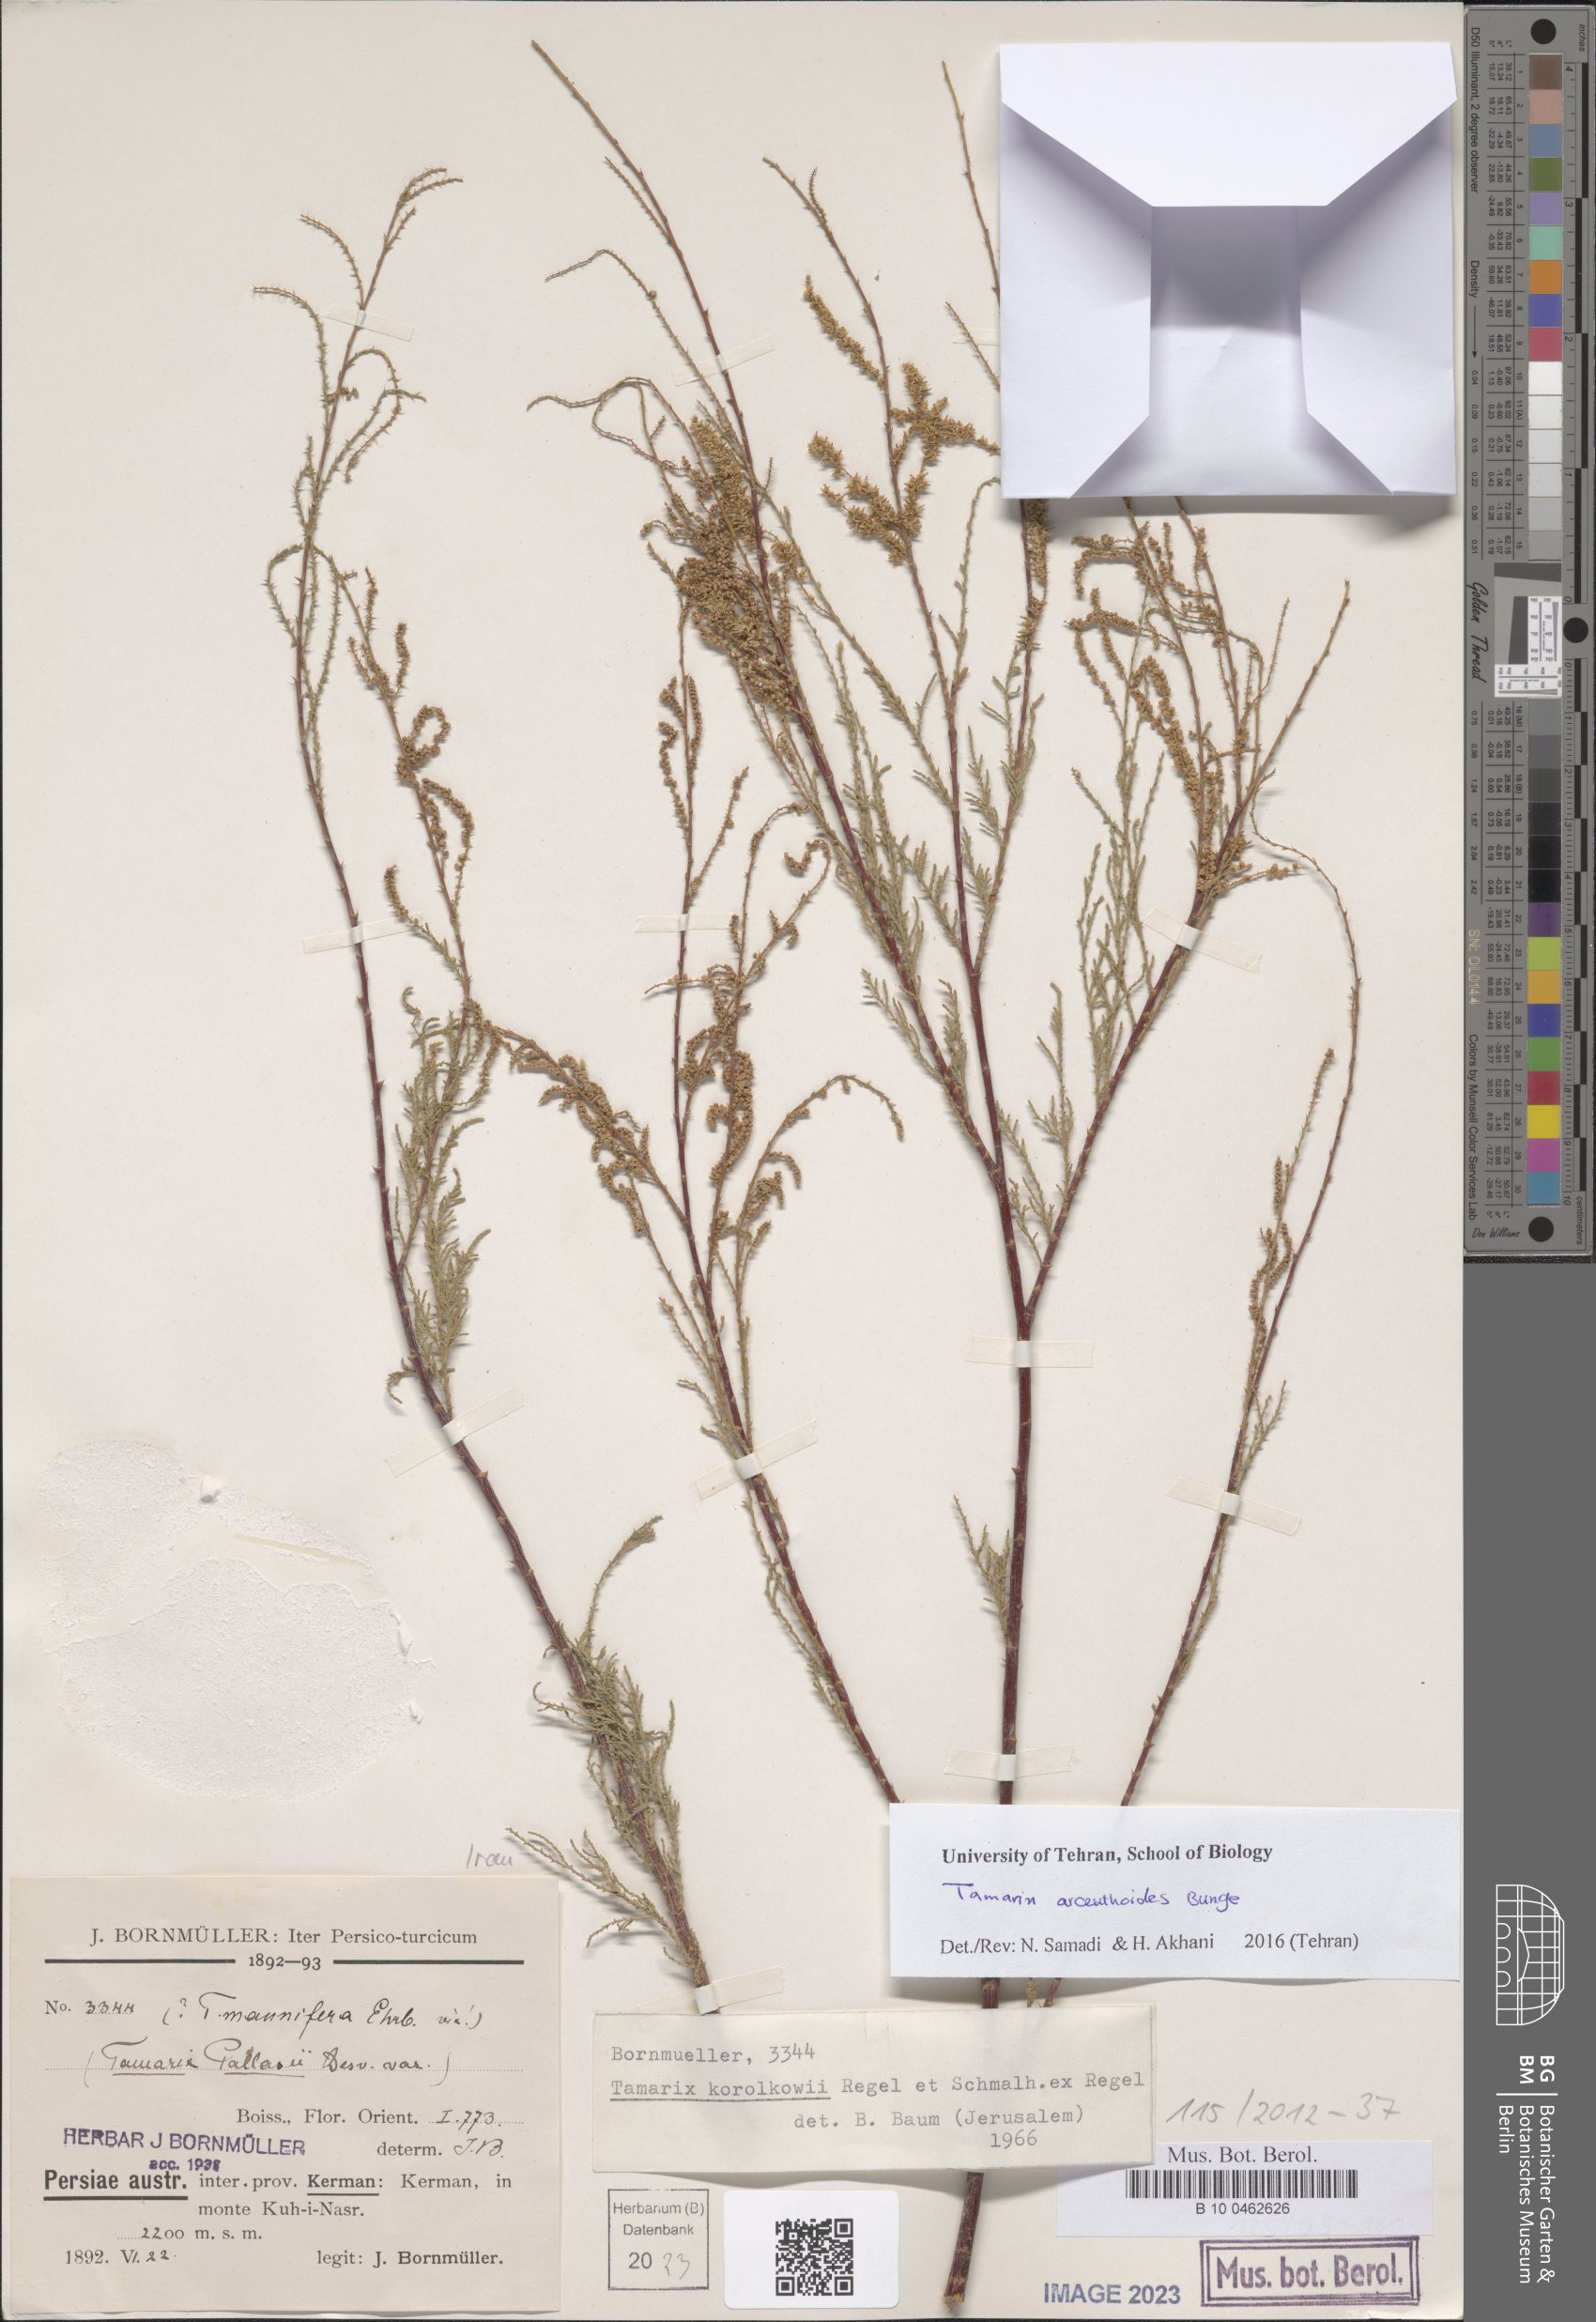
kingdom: Plantae
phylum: Tracheophyta
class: Magnoliopsida
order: Caryophyllales
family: Tamaricaceae
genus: Tamarix
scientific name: Tamarix arceuthoides
